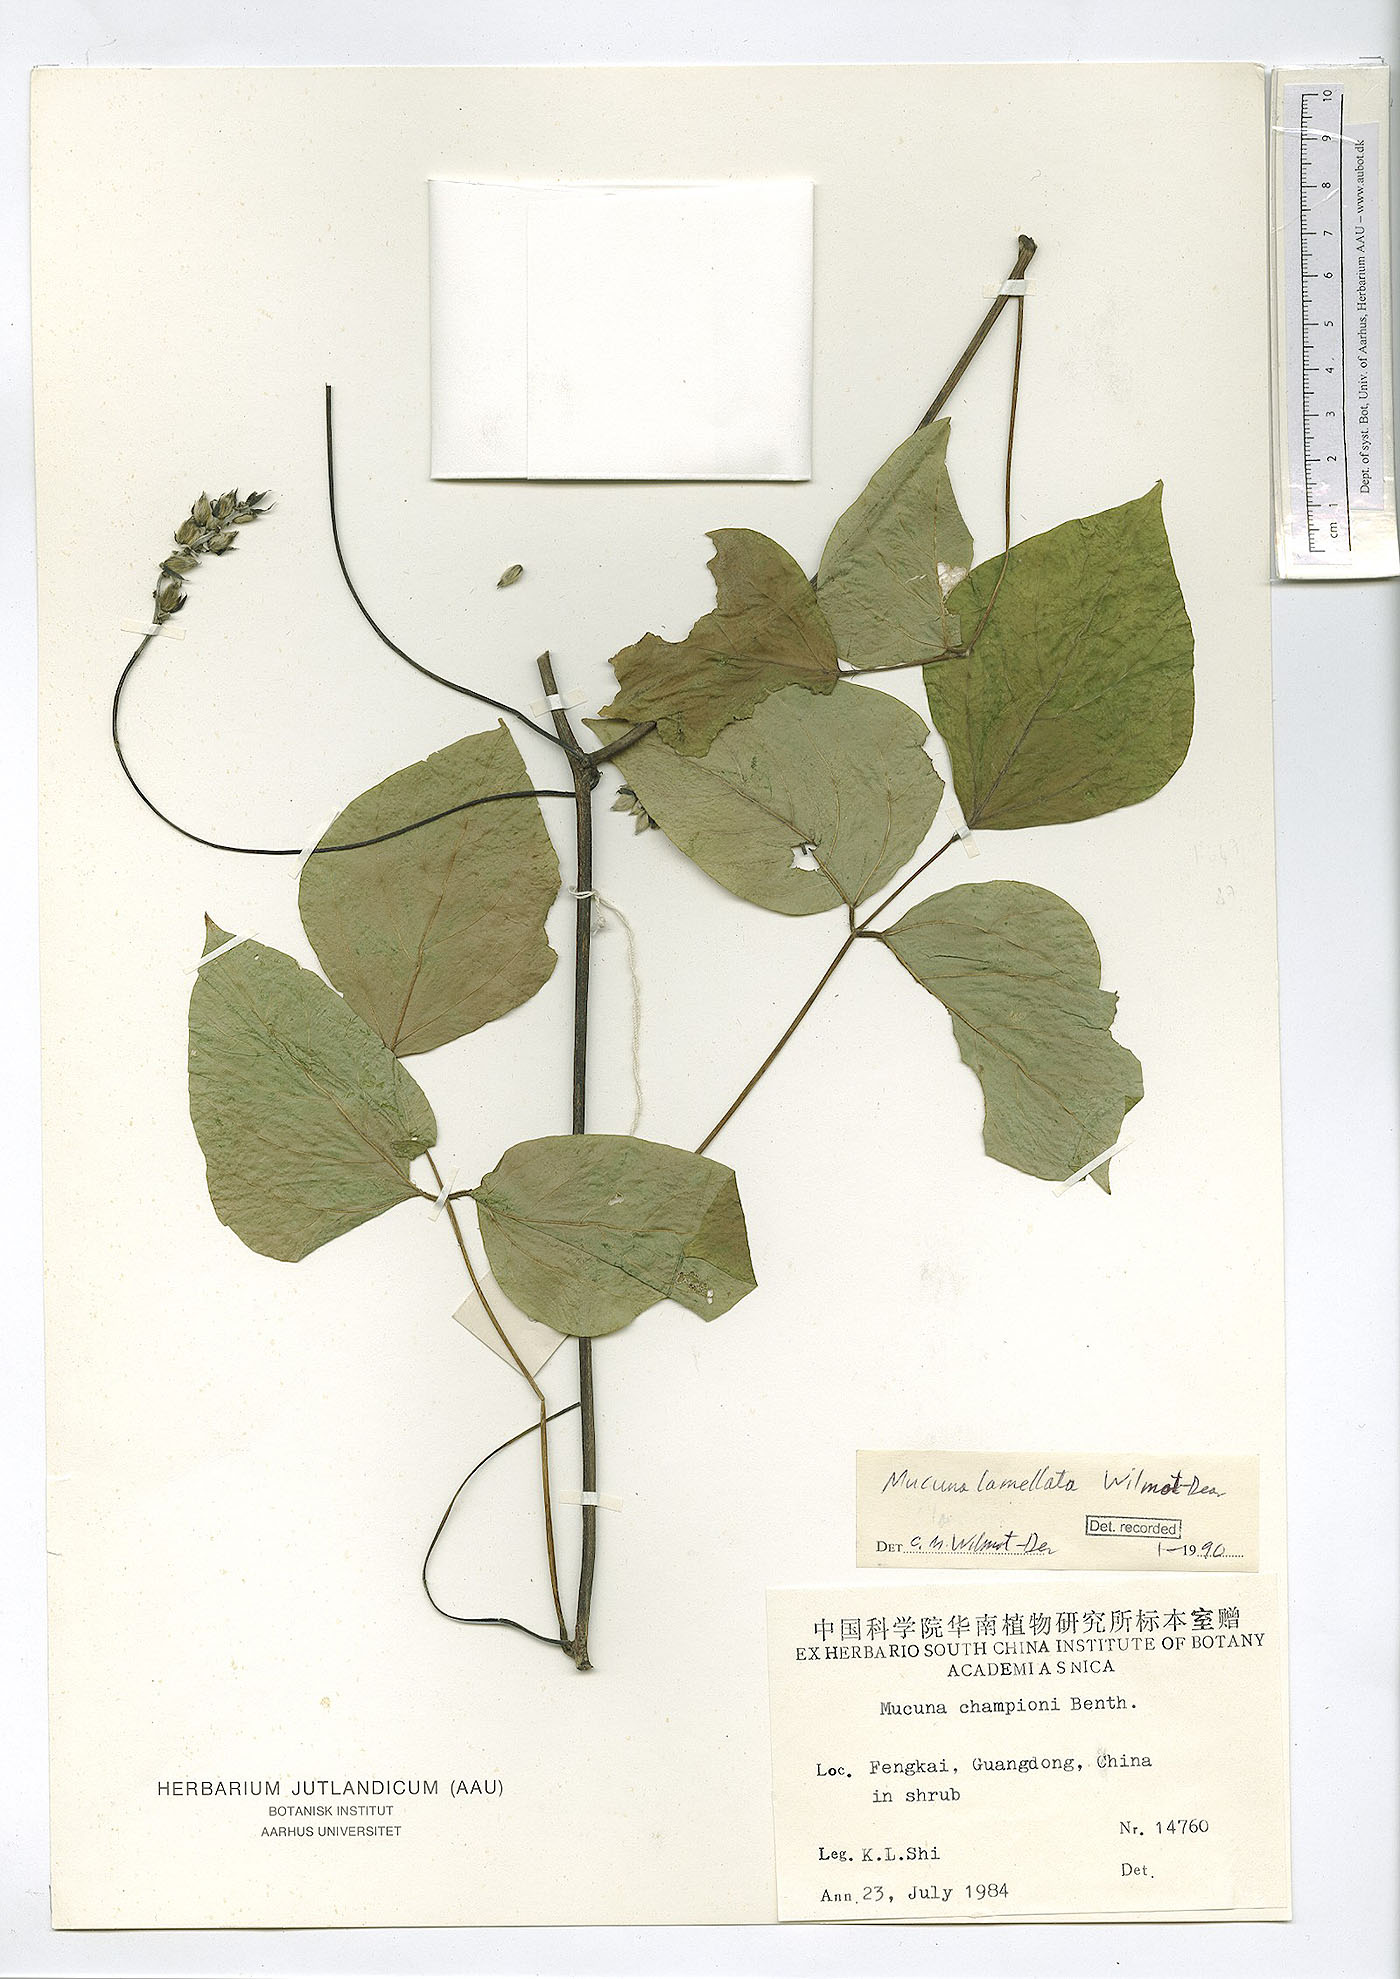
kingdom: Plantae
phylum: Tracheophyta
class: Magnoliopsida
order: Fabales
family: Fabaceae
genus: Mucuna
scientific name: Mucuna lamellata
